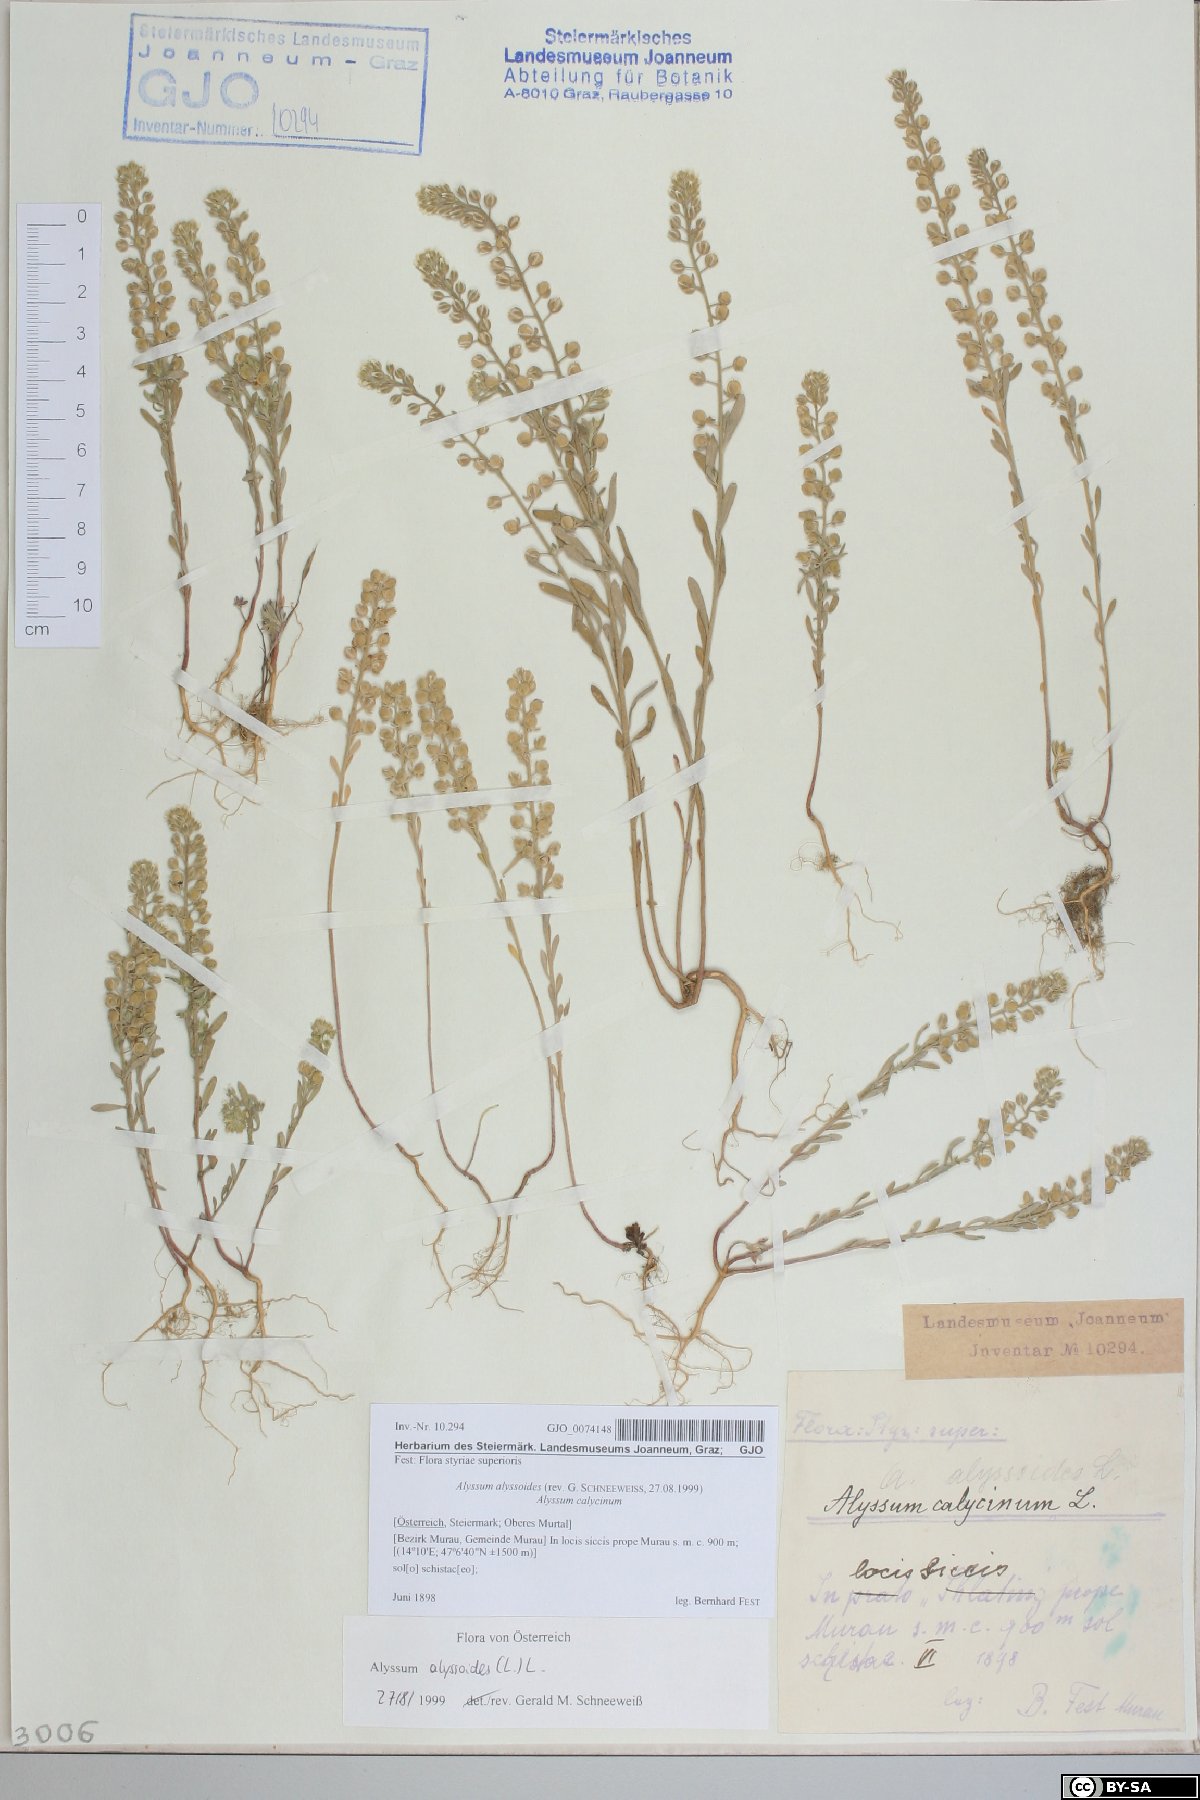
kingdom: Plantae
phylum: Tracheophyta
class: Magnoliopsida
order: Brassicales
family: Brassicaceae
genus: Alyssum
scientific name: Alyssum alyssoides
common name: Small alison
